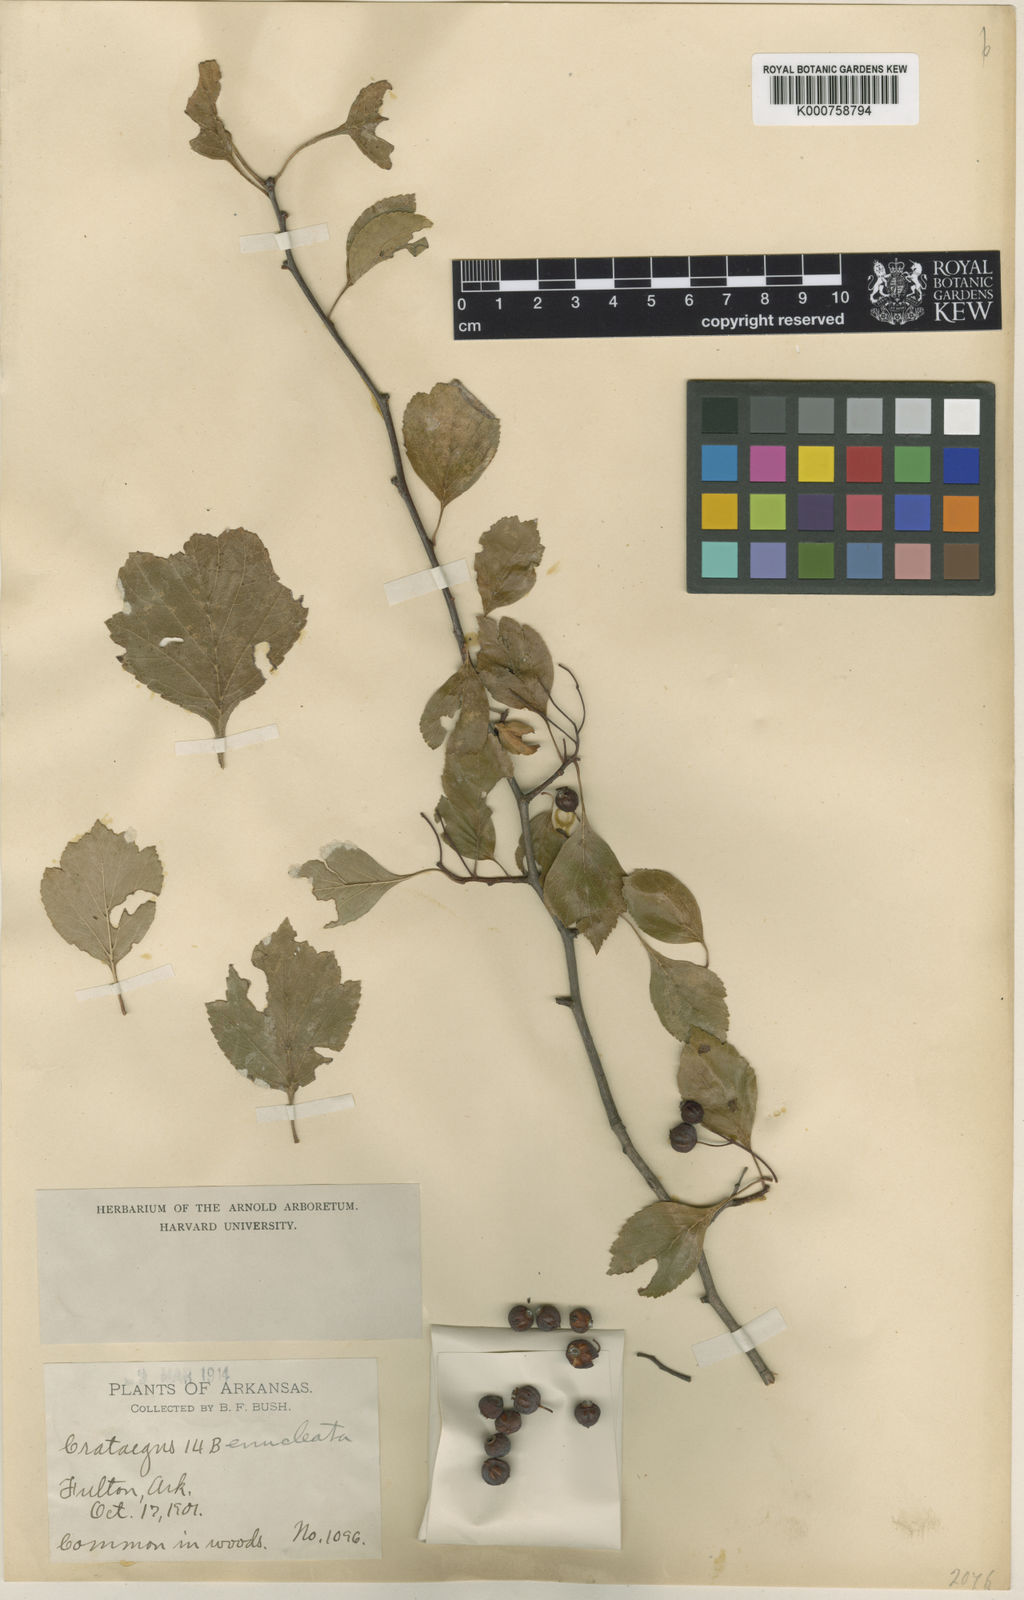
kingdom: Plantae
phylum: Tracheophyta
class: Magnoliopsida
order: Rosales
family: Rosaceae
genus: Crataegus
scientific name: Crataegus viridis
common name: Southernthorn
